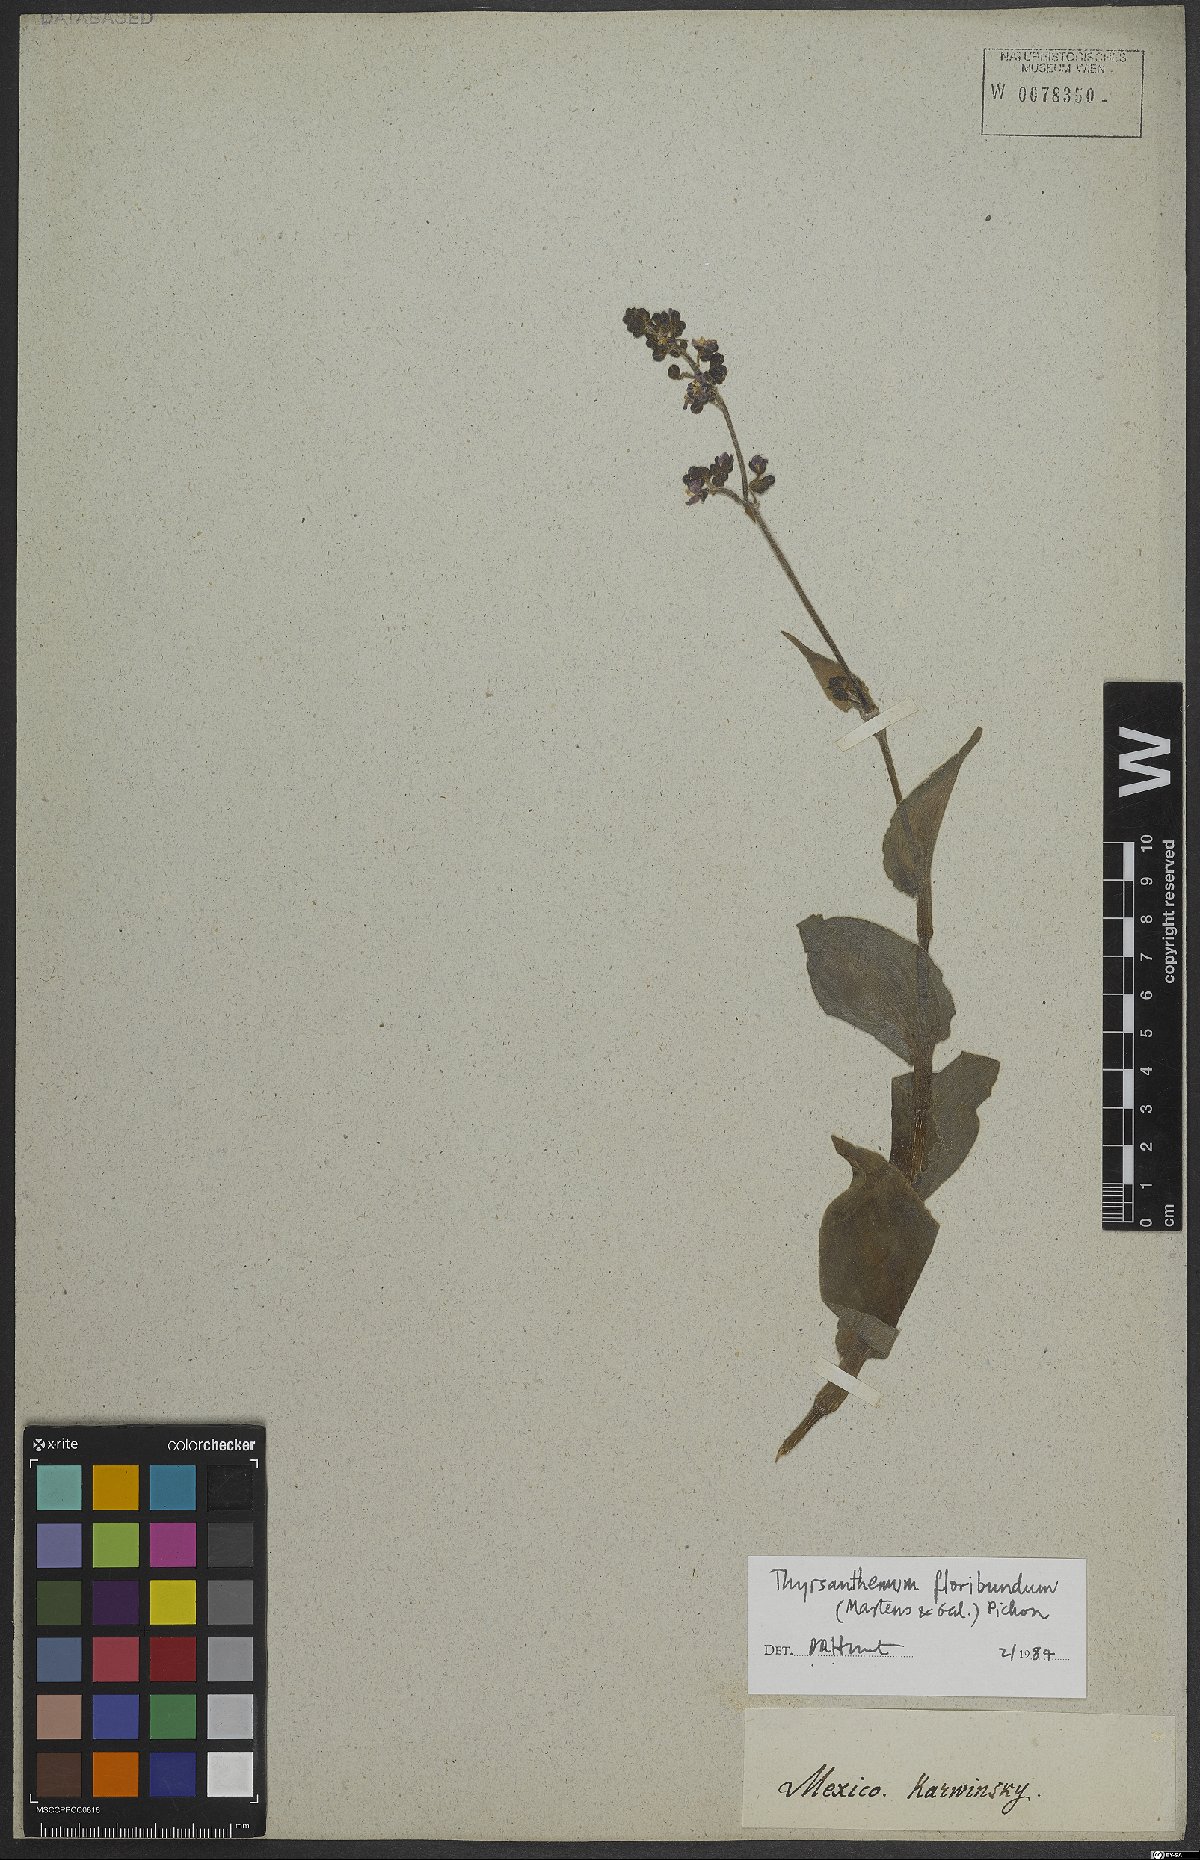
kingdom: Plantae
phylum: Tracheophyta
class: Liliopsida
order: Commelinales
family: Commelinaceae
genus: Thyrsanthemum
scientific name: Thyrsanthemum floribundum
